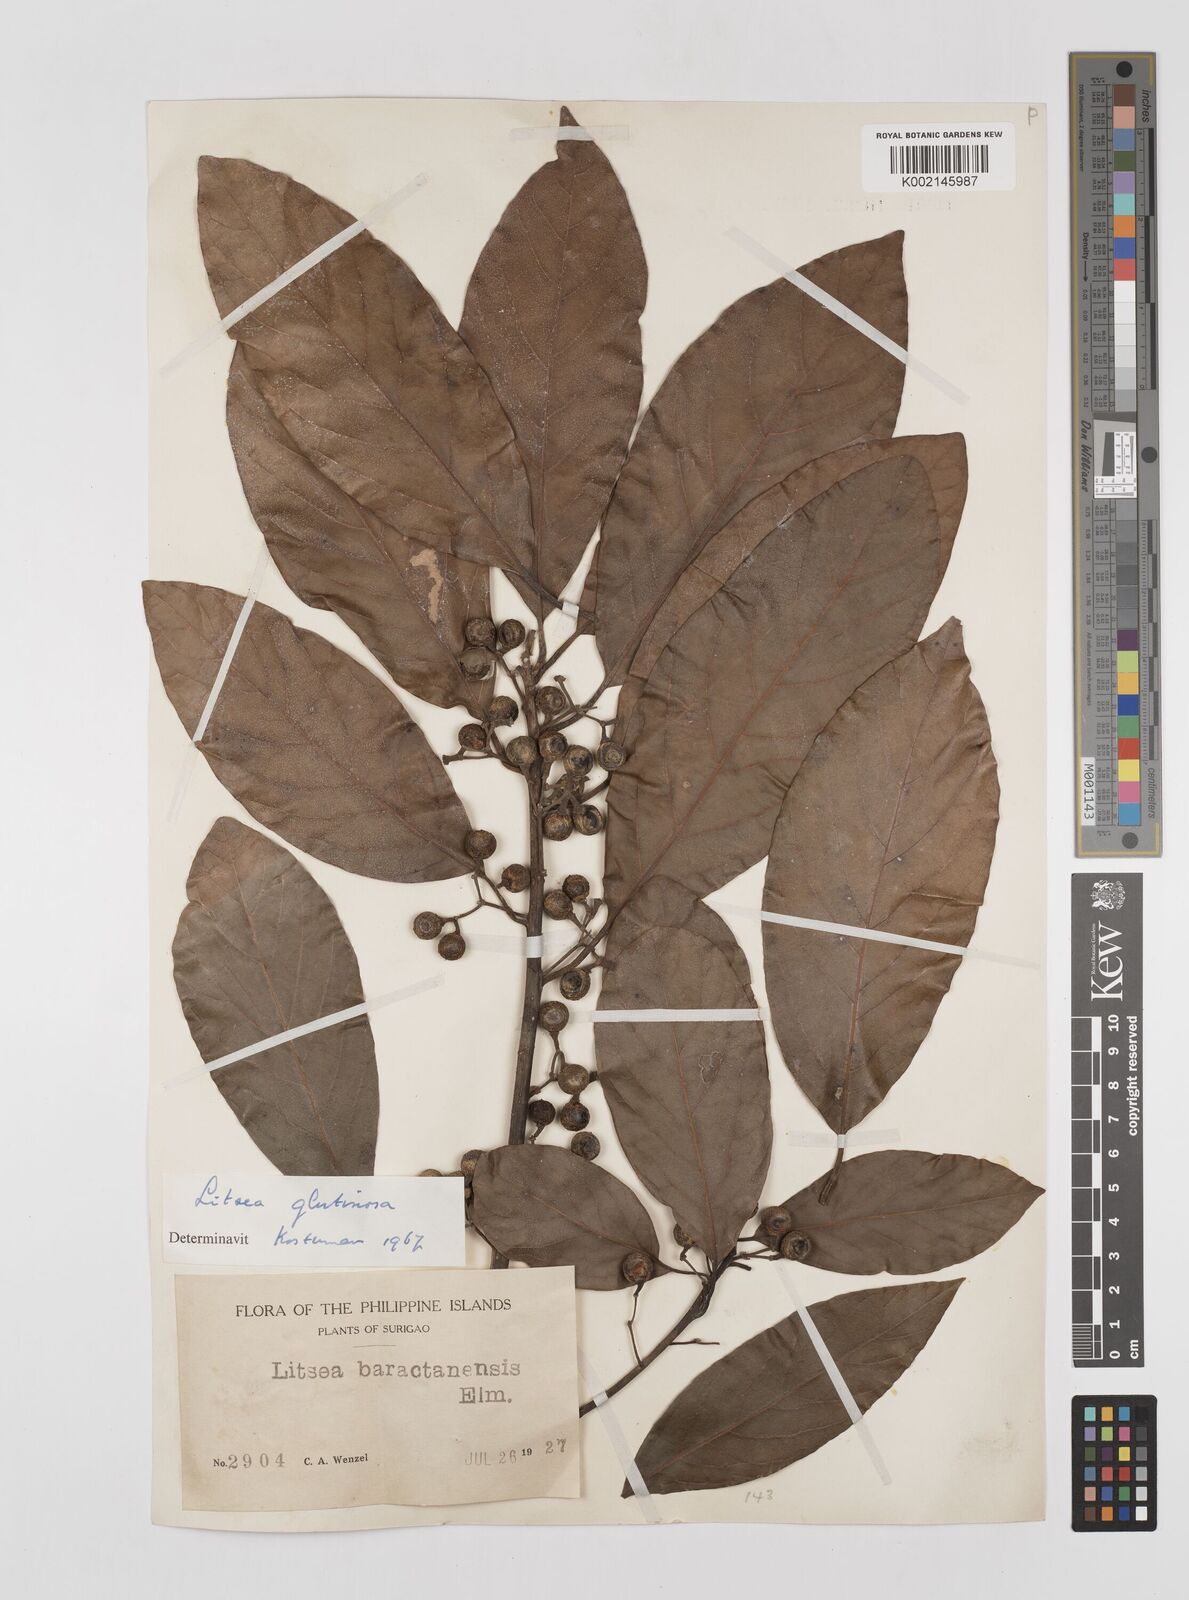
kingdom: Plantae
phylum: Tracheophyta
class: Magnoliopsida
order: Laurales
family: Lauraceae
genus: Litsea
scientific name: Litsea glutinosa
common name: Indian-laurel
